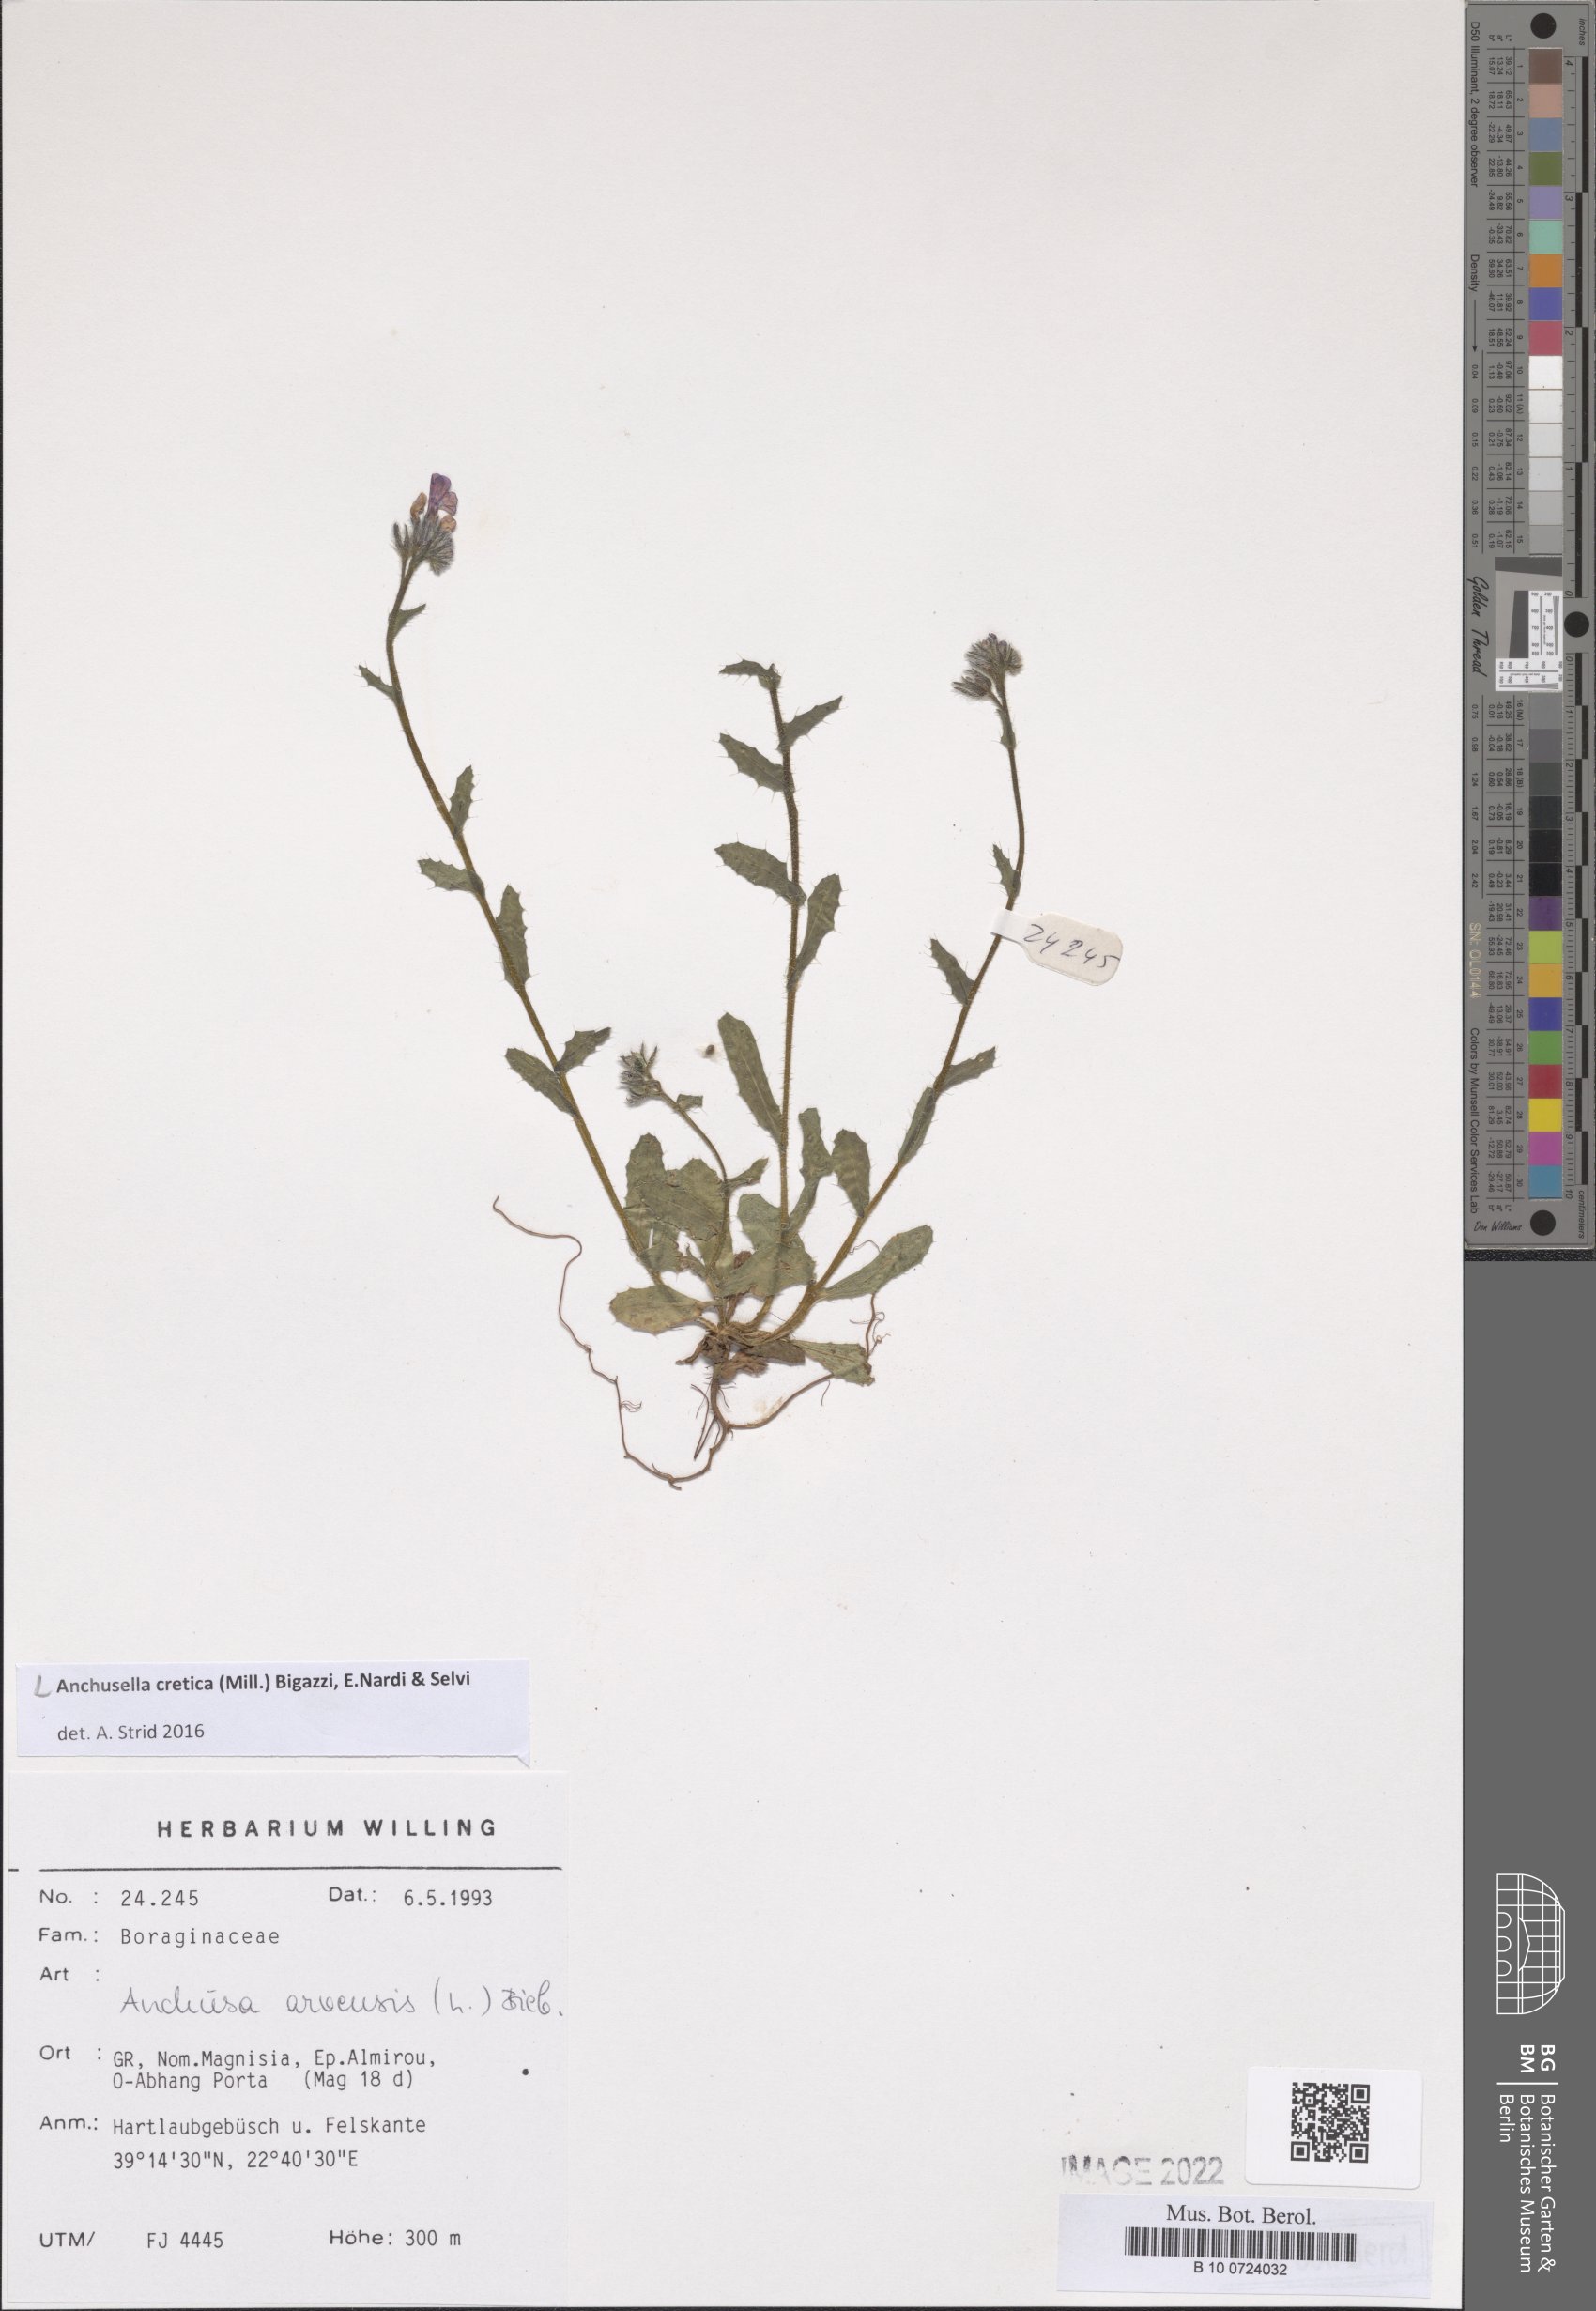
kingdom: Plantae
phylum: Tracheophyta
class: Magnoliopsida
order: Boraginales
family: Boraginaceae
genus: Anchusella
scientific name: Anchusella cretica
